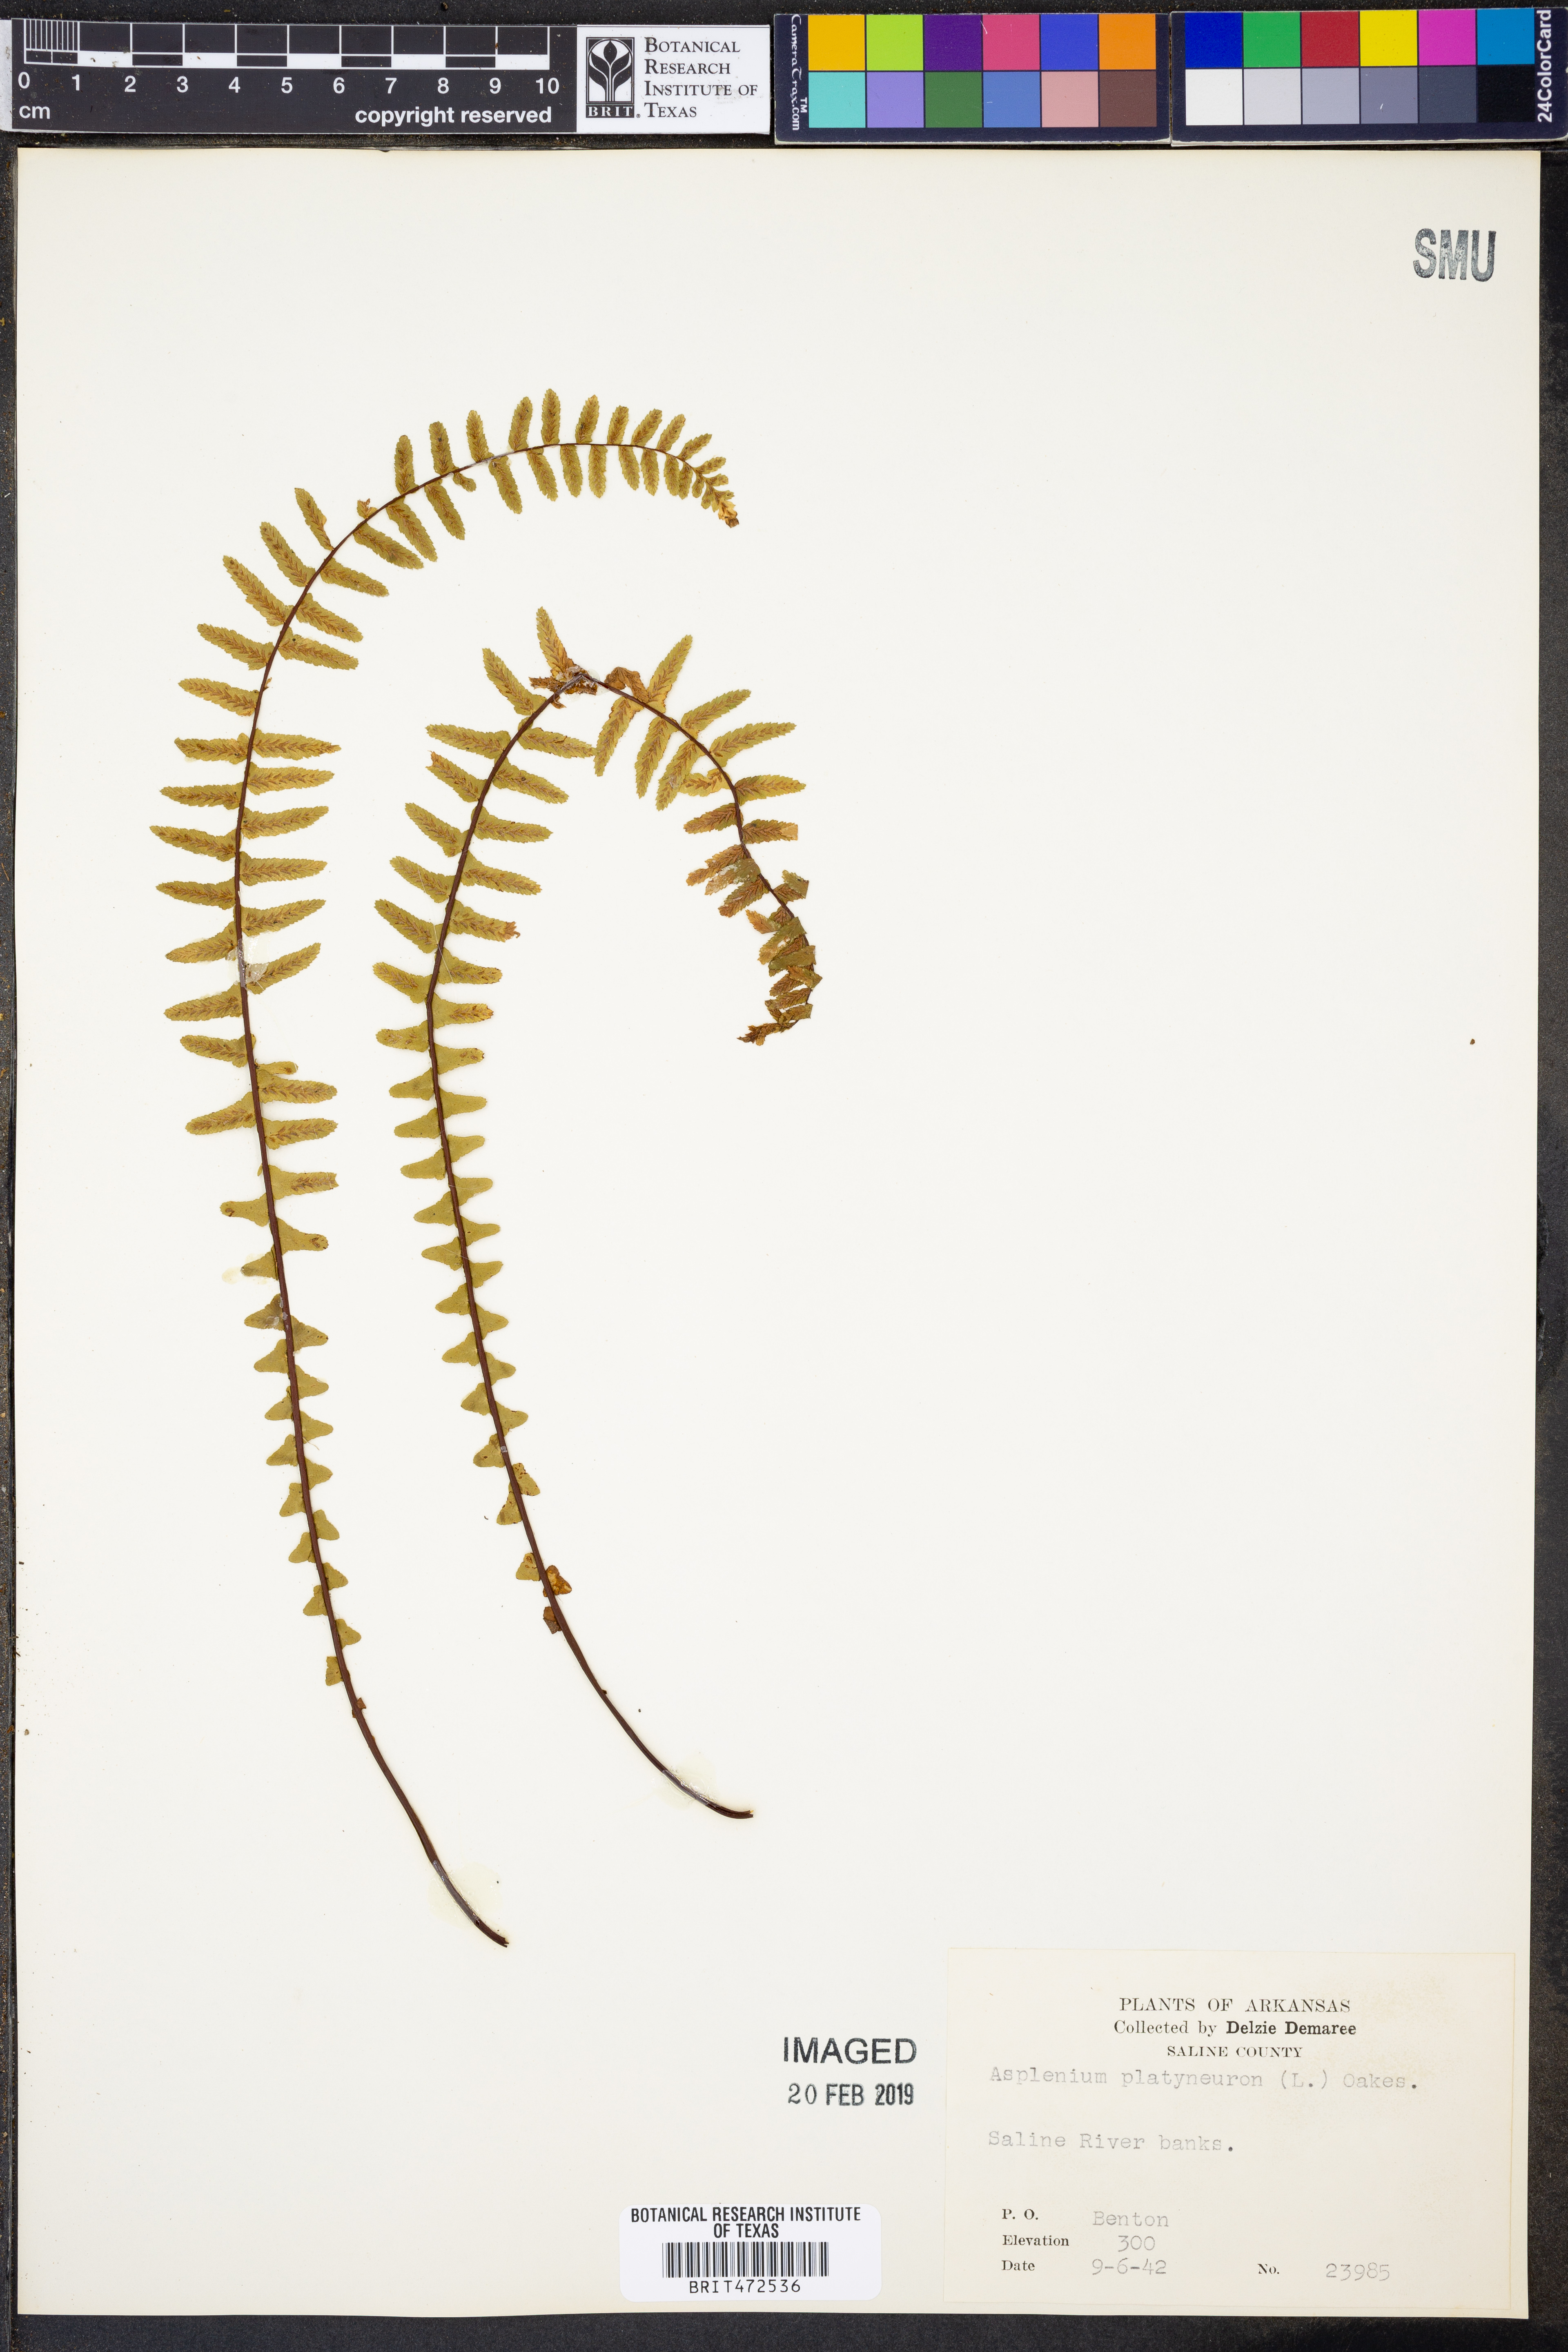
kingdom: Plantae
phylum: Tracheophyta
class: Polypodiopsida
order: Polypodiales
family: Aspleniaceae
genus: Asplenium
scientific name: Asplenium platyneuron
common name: Ebony spleenwort
